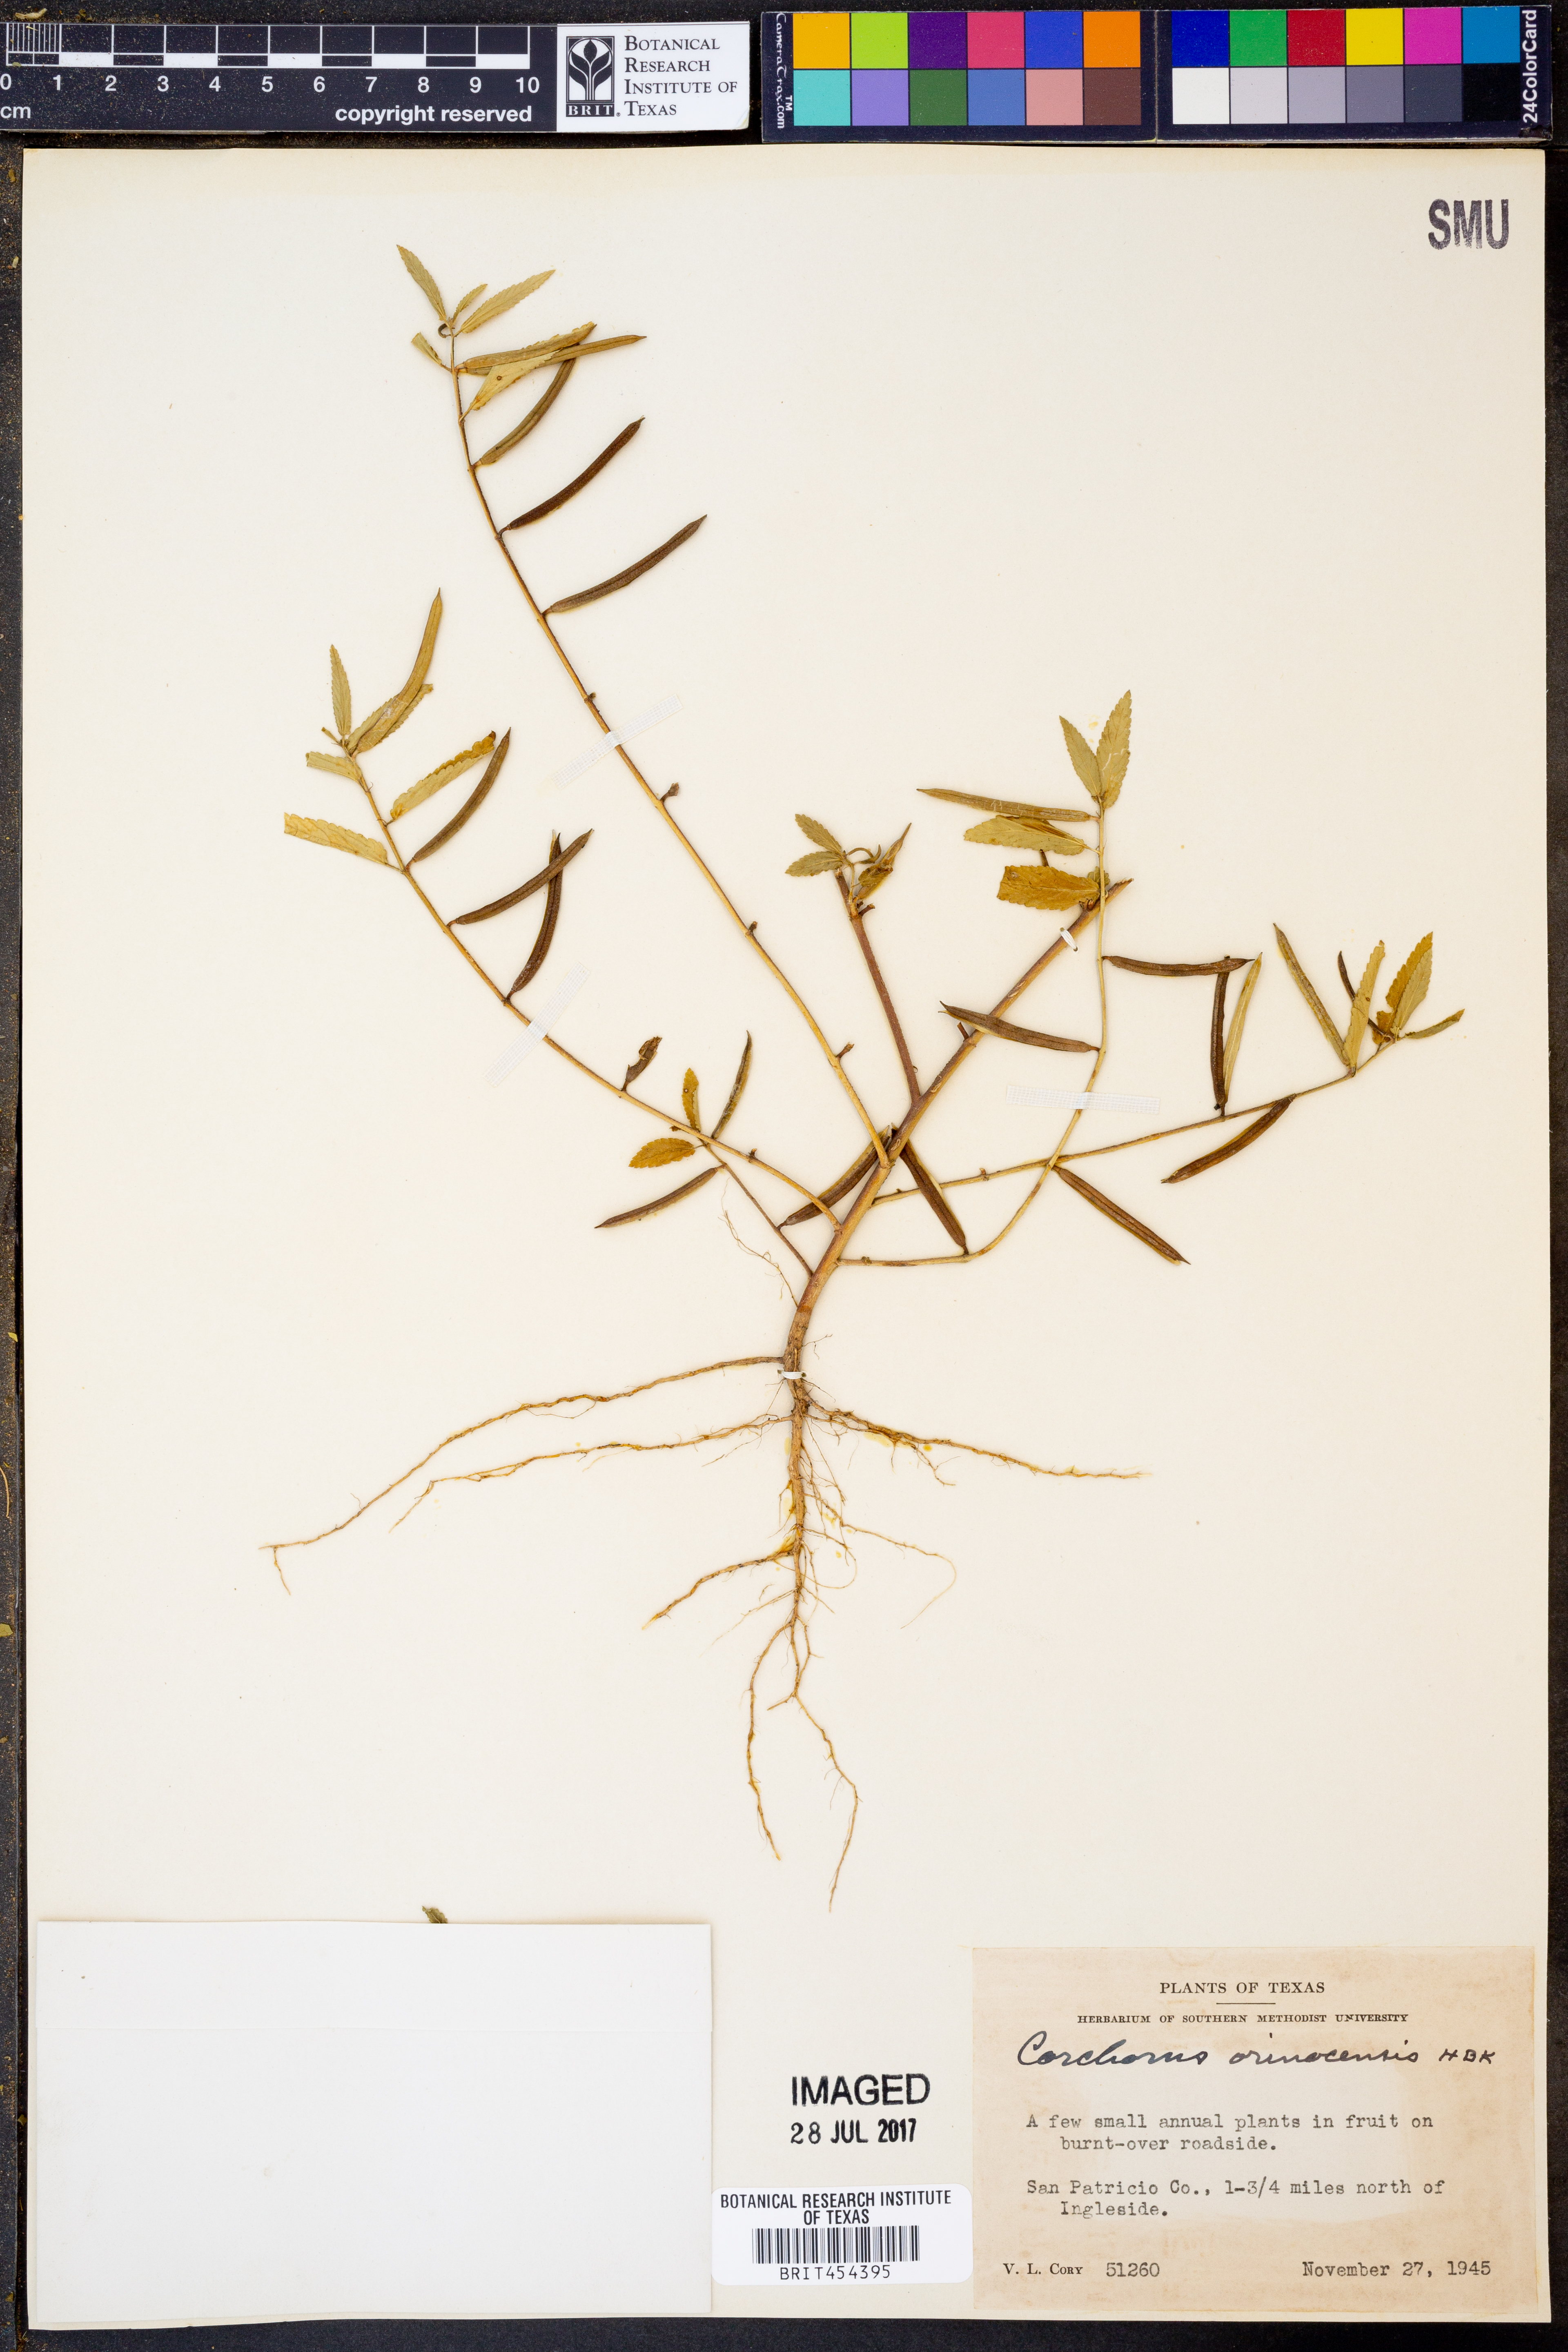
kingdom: Plantae
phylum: Tracheophyta
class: Magnoliopsida
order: Malvales
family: Malvaceae
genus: Corchorus
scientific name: Corchorus orinocensis
